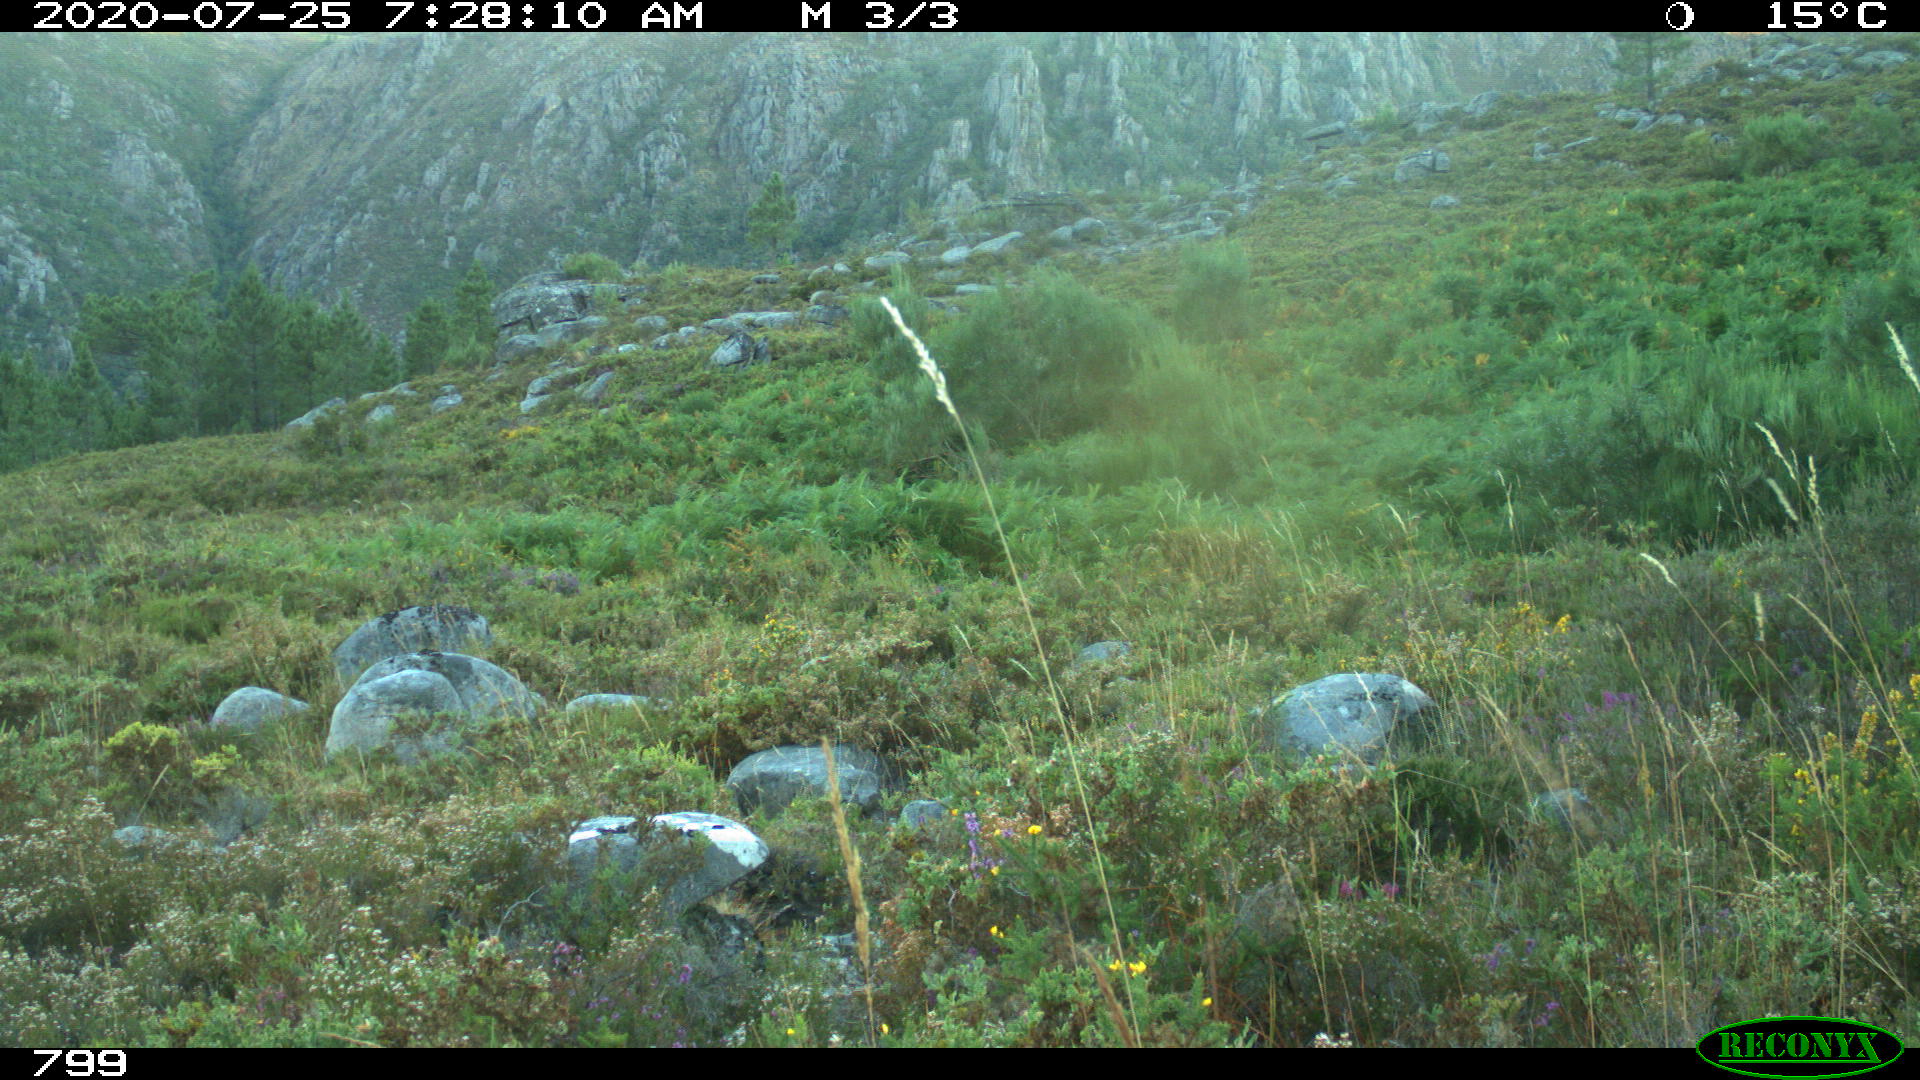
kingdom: Animalia
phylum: Chordata
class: Mammalia
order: Artiodactyla
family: Bovidae
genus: Bos
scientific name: Bos taurus
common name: Domesticated cattle
